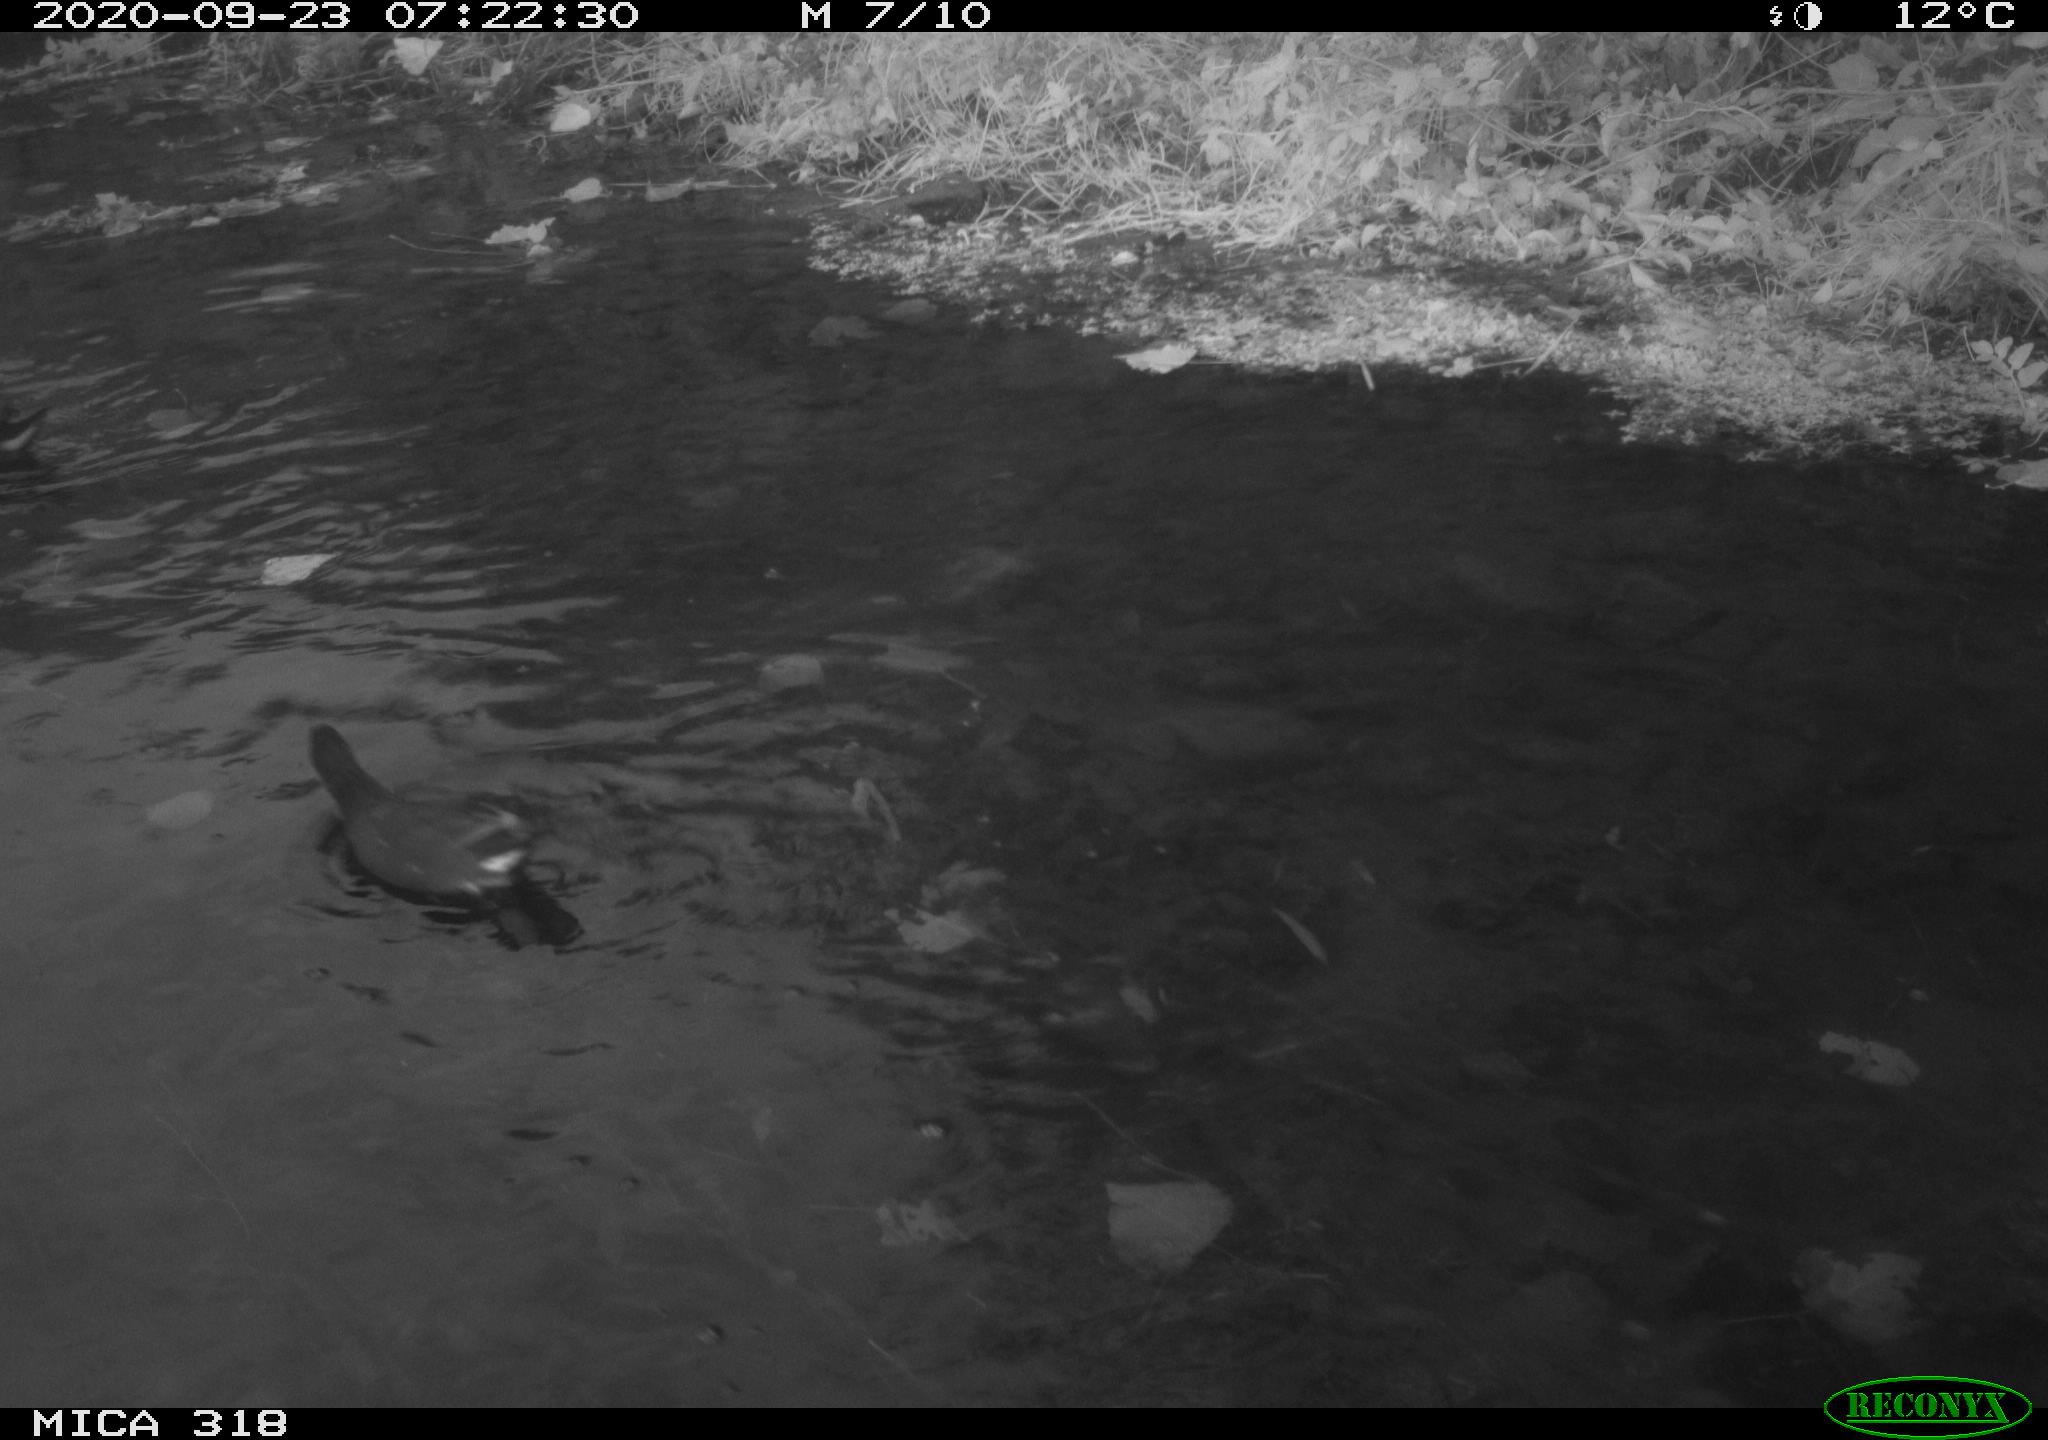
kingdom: Animalia
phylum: Chordata
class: Aves
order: Gruiformes
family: Rallidae
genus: Gallinula
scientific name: Gallinula chloropus
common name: Common moorhen
